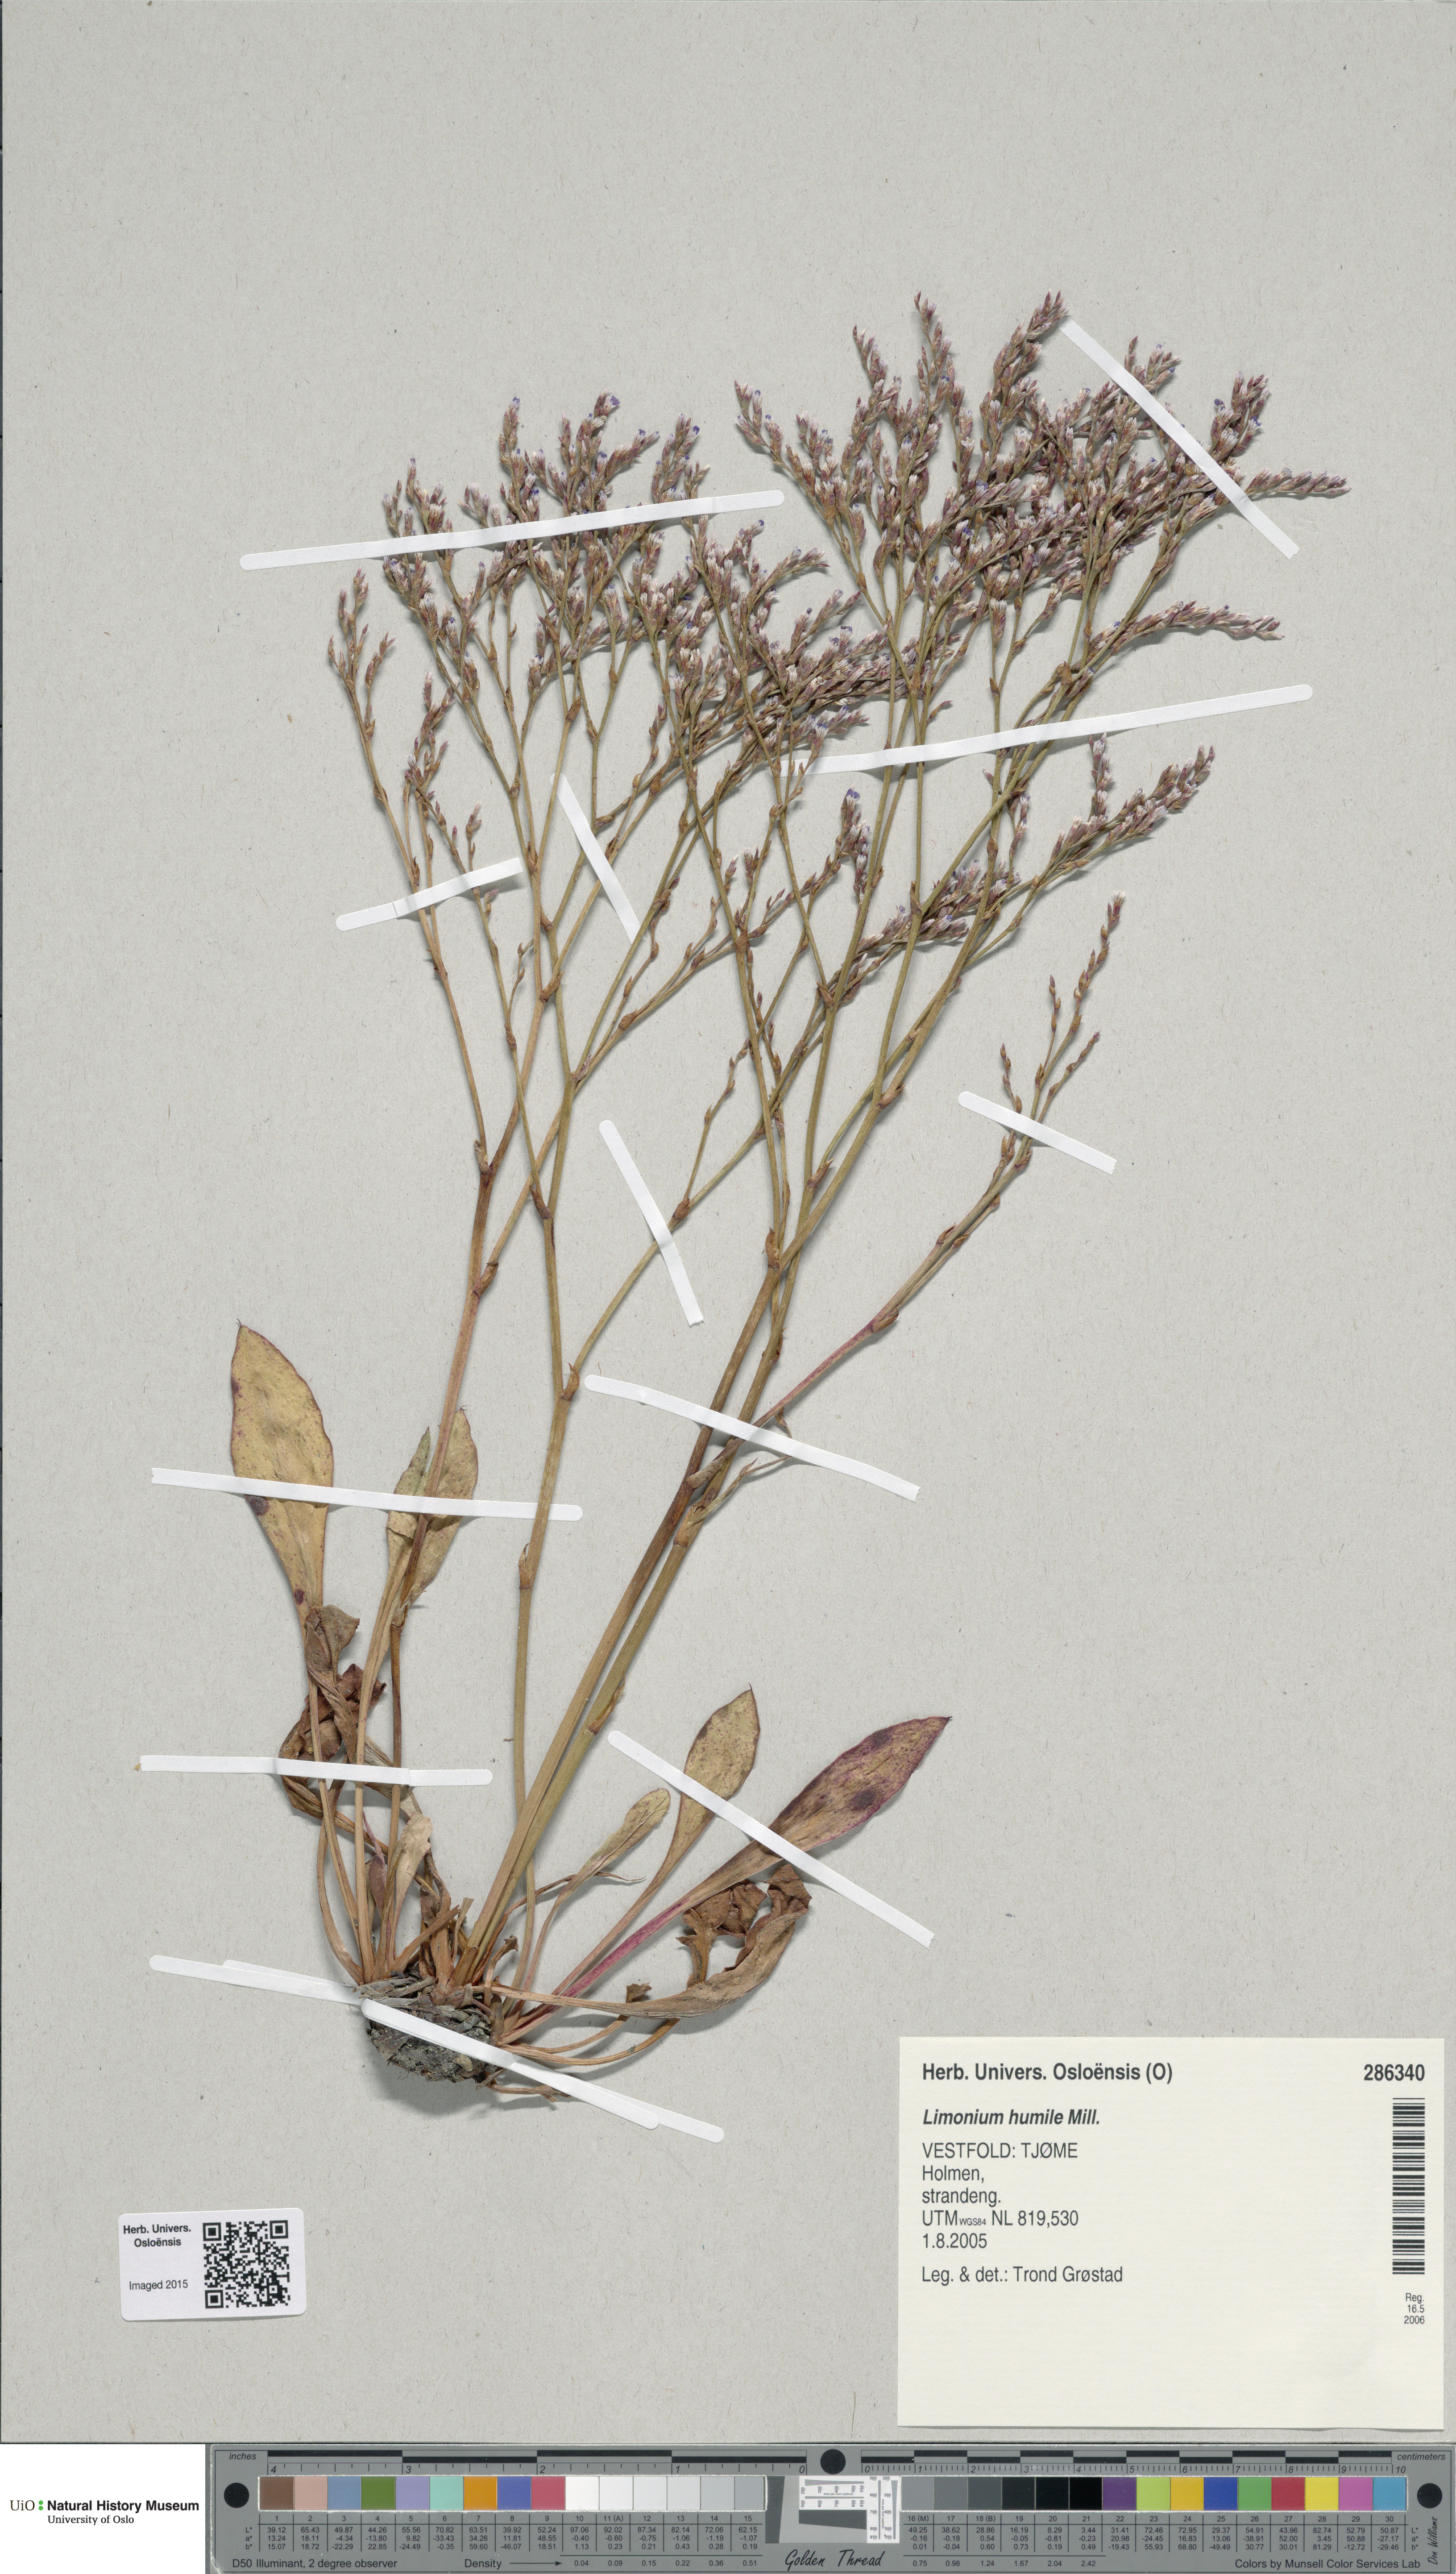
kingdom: Plantae
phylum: Tracheophyta
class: Magnoliopsida
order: Caryophyllales
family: Plumbaginaceae
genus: Limonium
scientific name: Limonium humile
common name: Lax-flowered sea-lavender
